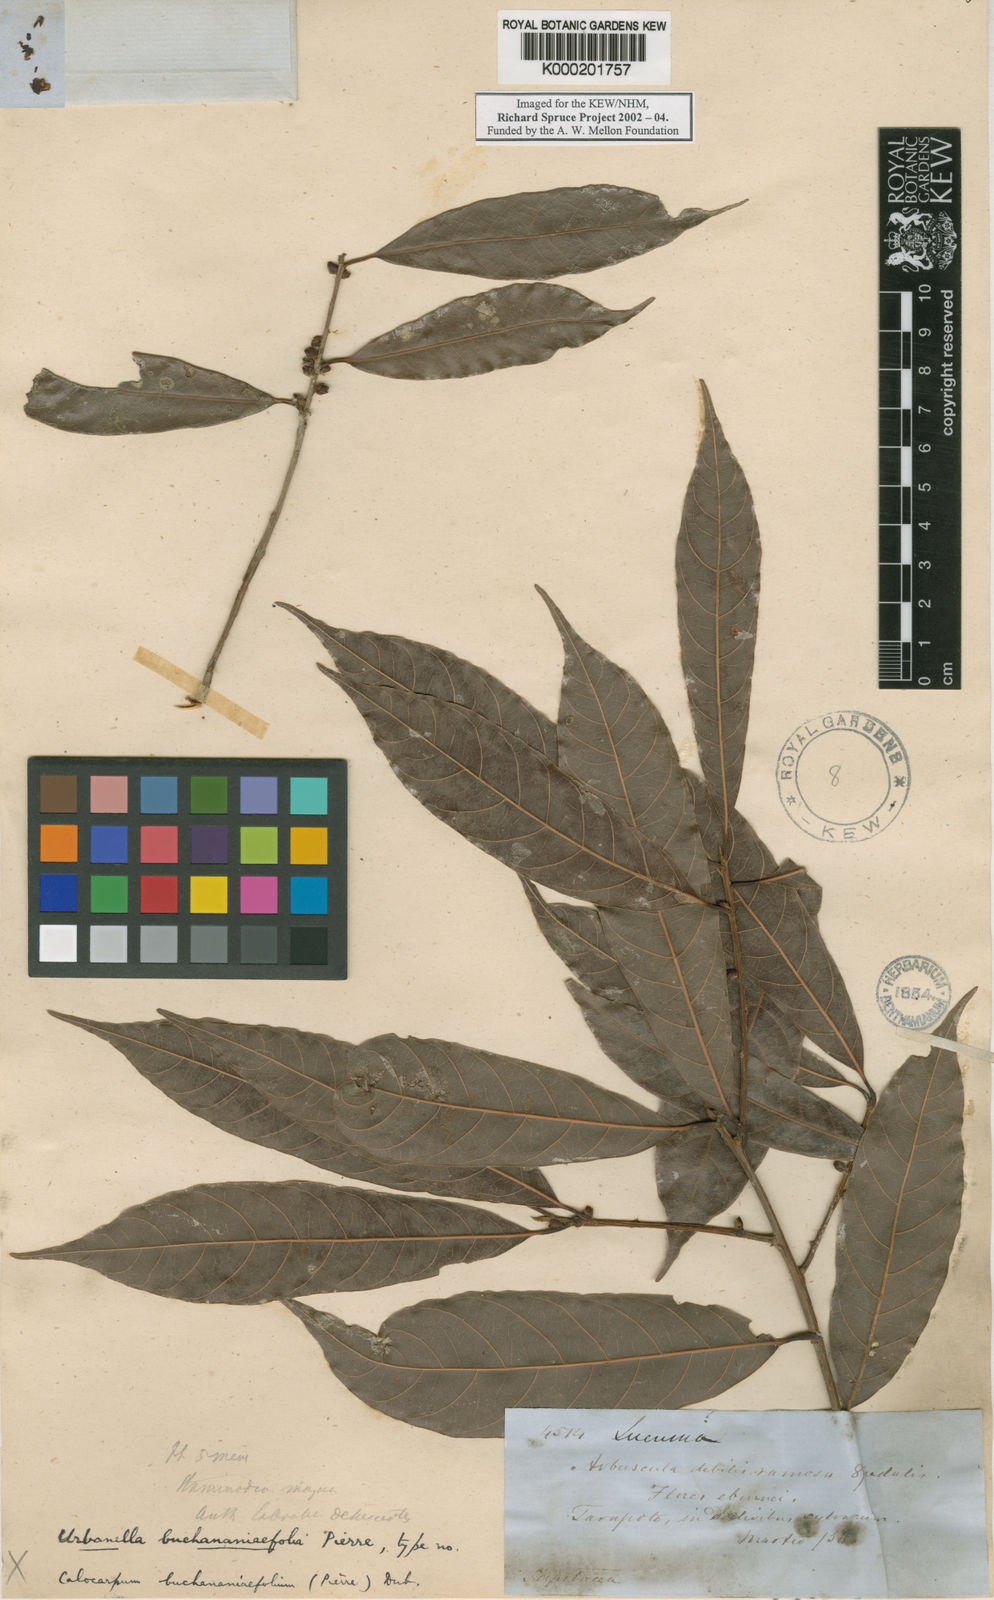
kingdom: Plantae
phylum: Tracheophyta
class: Magnoliopsida
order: Ericales
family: Sapotaceae
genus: Pouteria
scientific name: Pouteria procera
